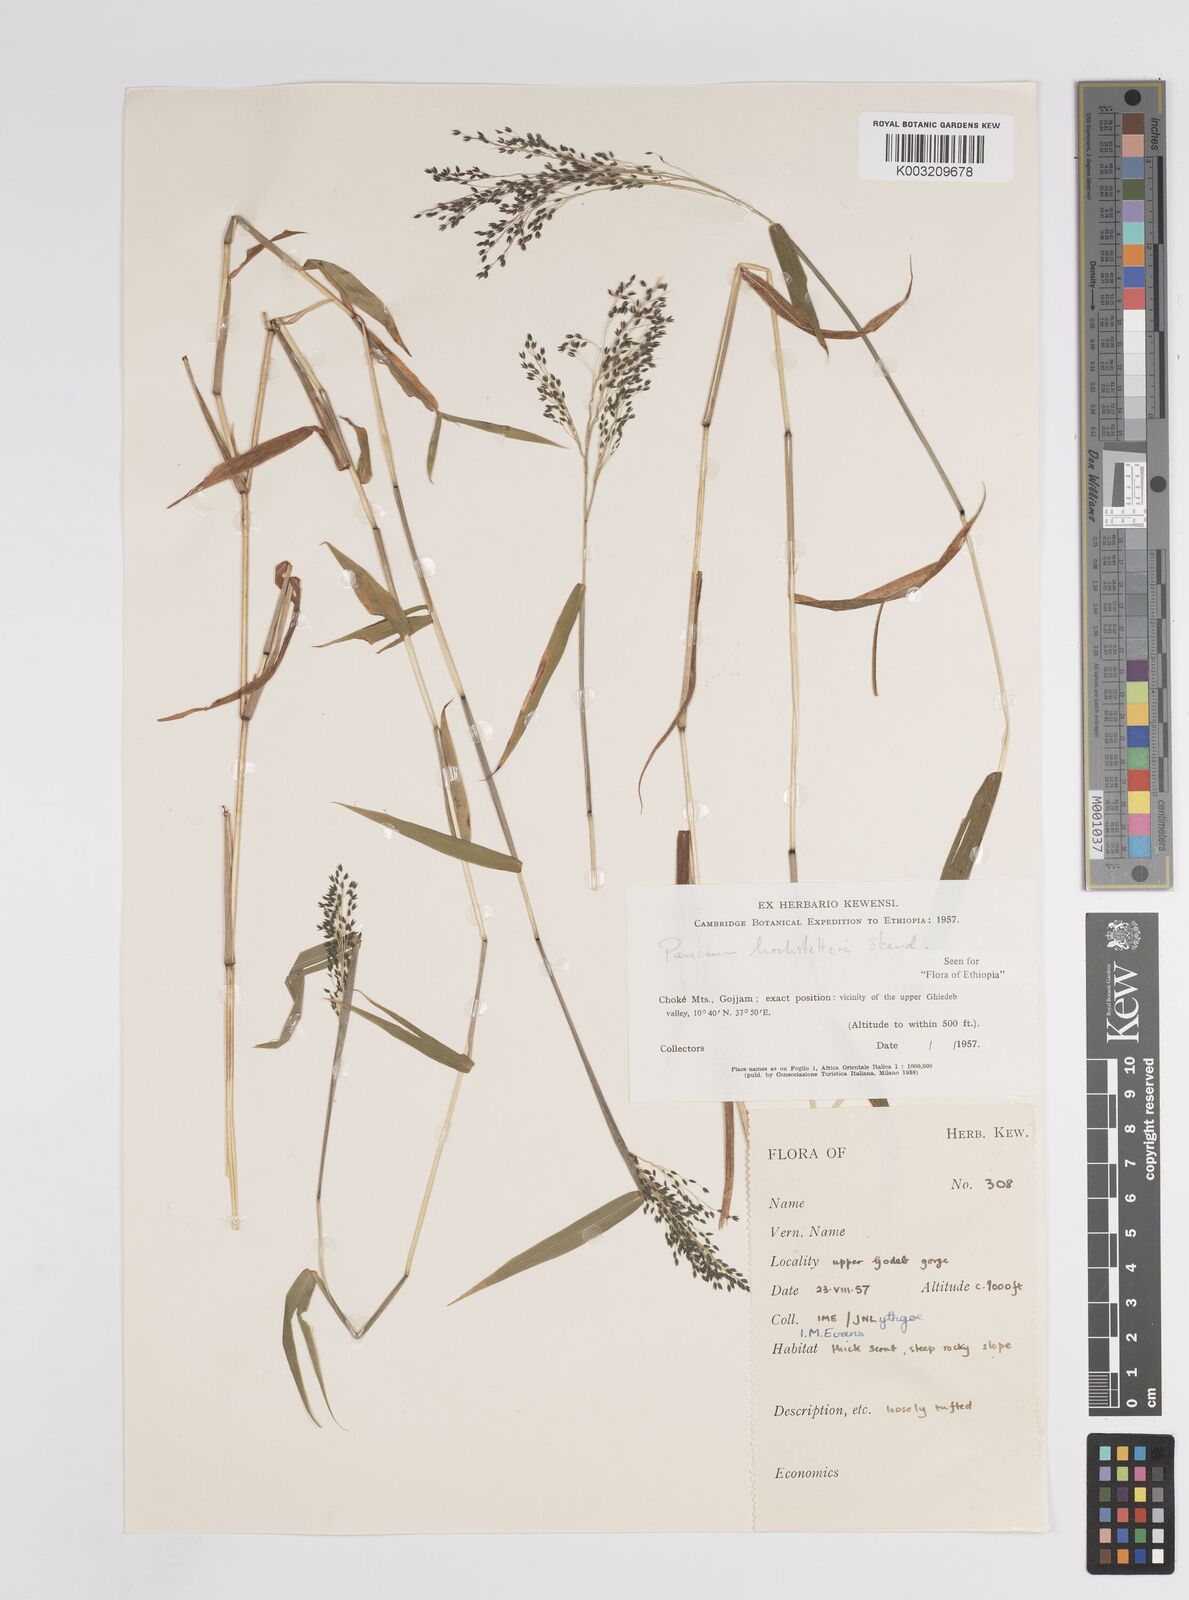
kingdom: Plantae
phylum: Tracheophyta
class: Liliopsida
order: Poales
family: Poaceae
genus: Panicum
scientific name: Panicum hochstetteri
